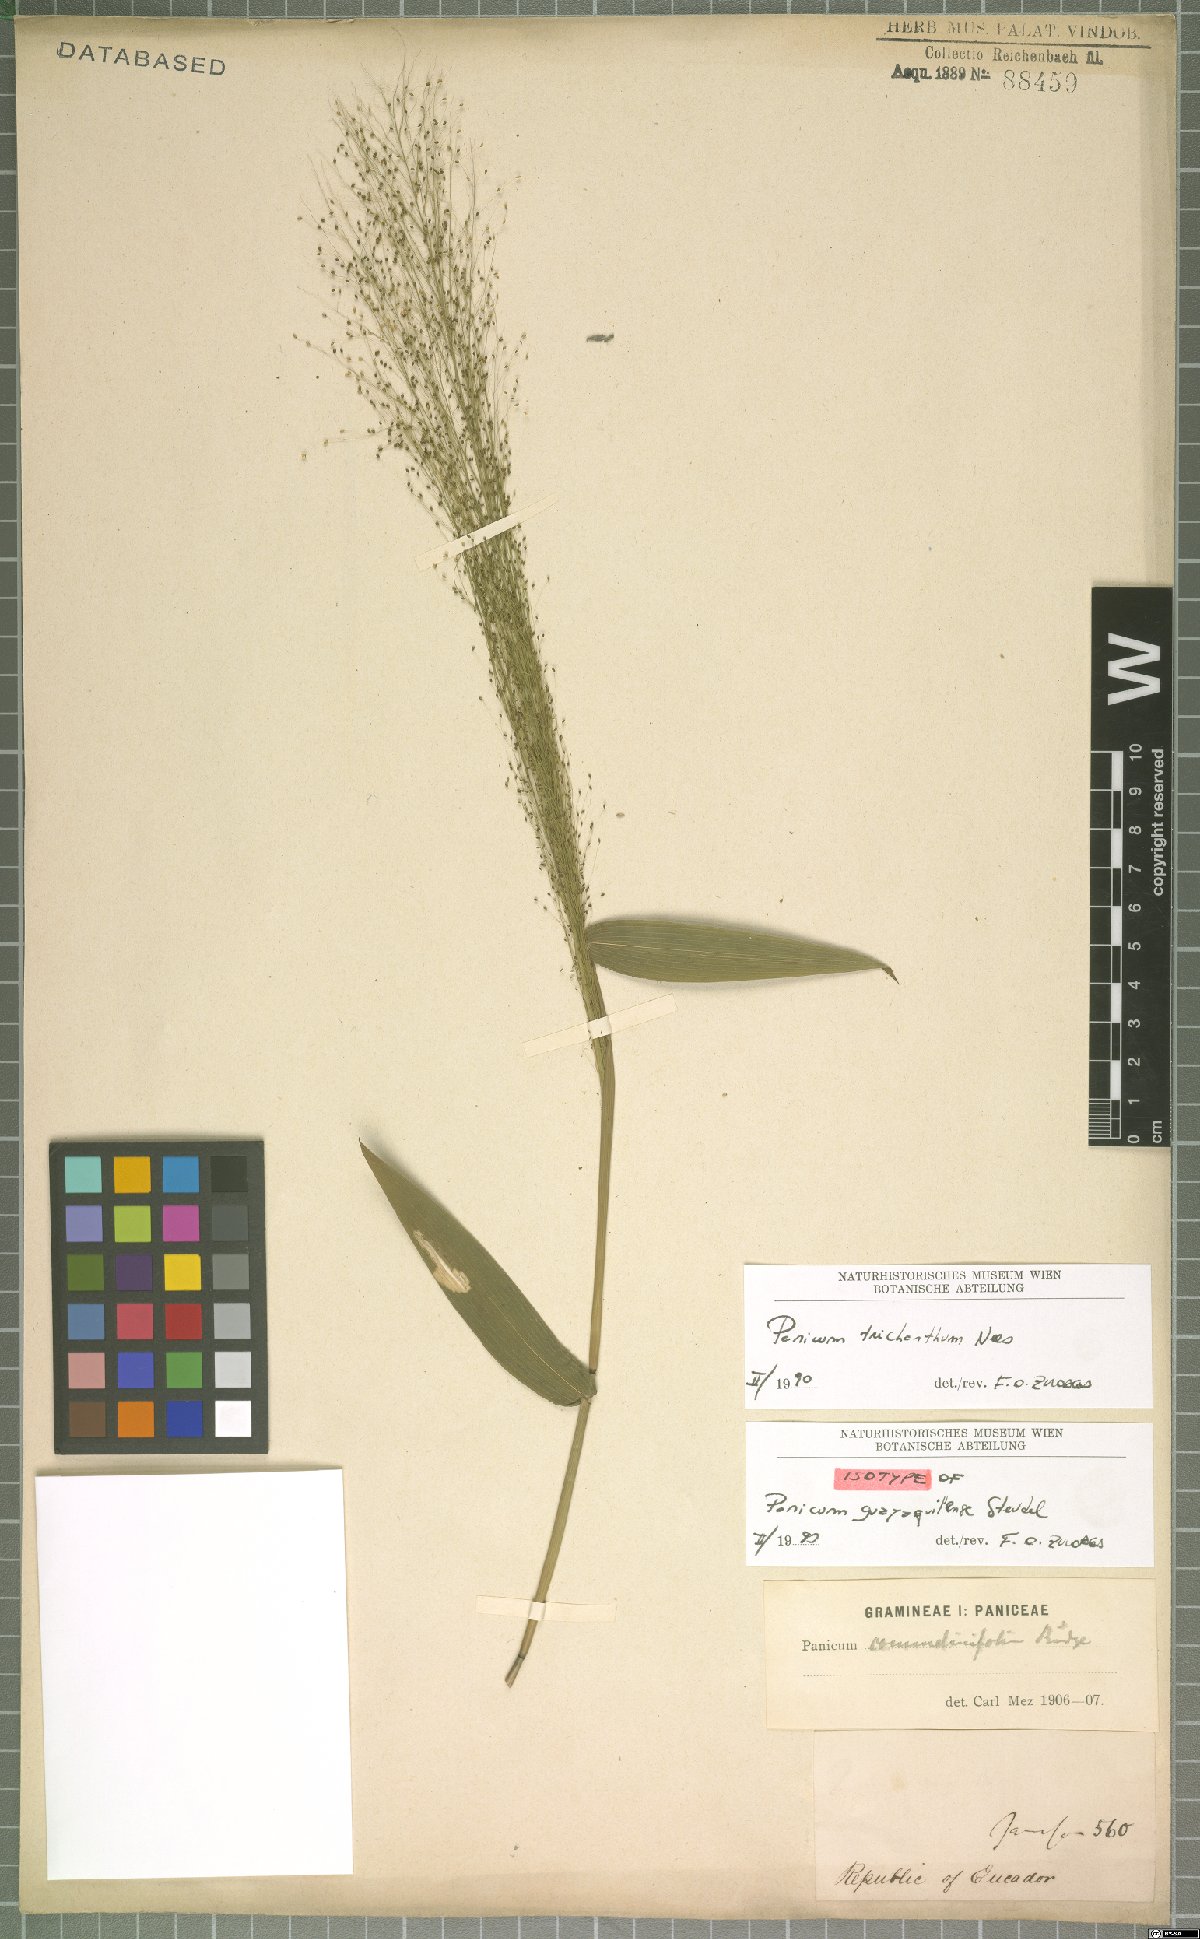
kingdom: Plantae
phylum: Tracheophyta
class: Liliopsida
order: Poales
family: Poaceae
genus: Panicum
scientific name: Panicum trichanthum
